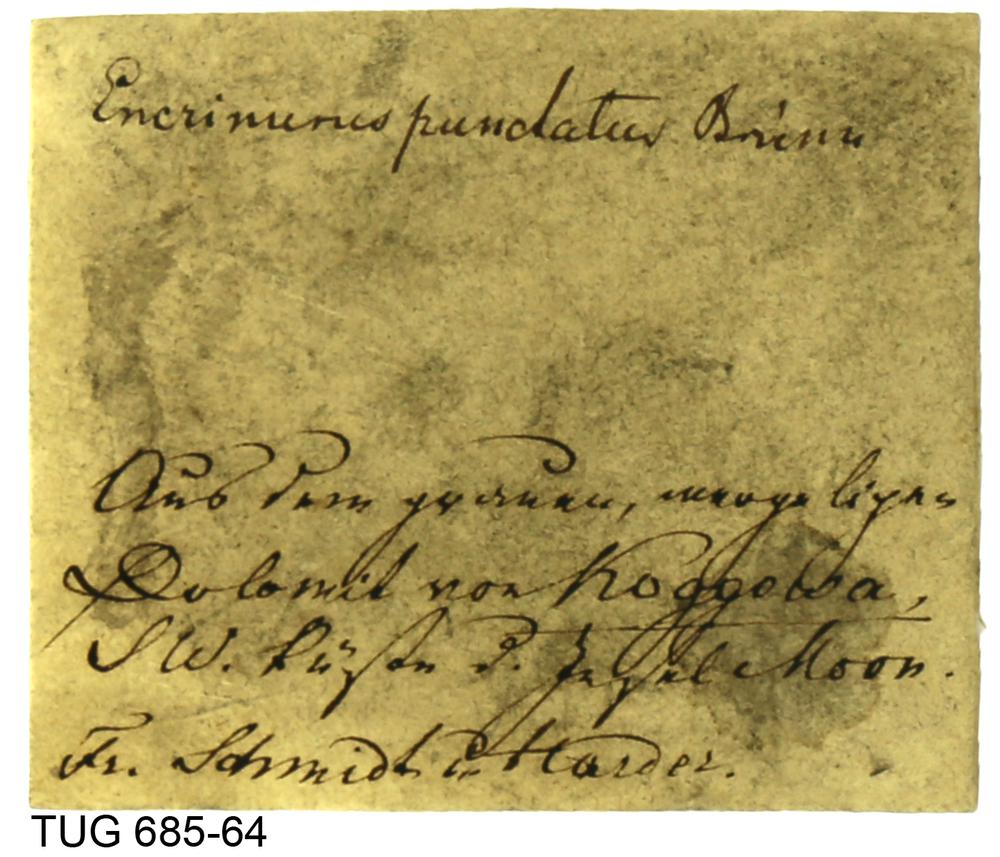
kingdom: Animalia
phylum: Arthropoda
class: Trilobita
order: Phacopida
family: Encrinuridae
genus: Encrinurus
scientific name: Encrinurus punctatus
